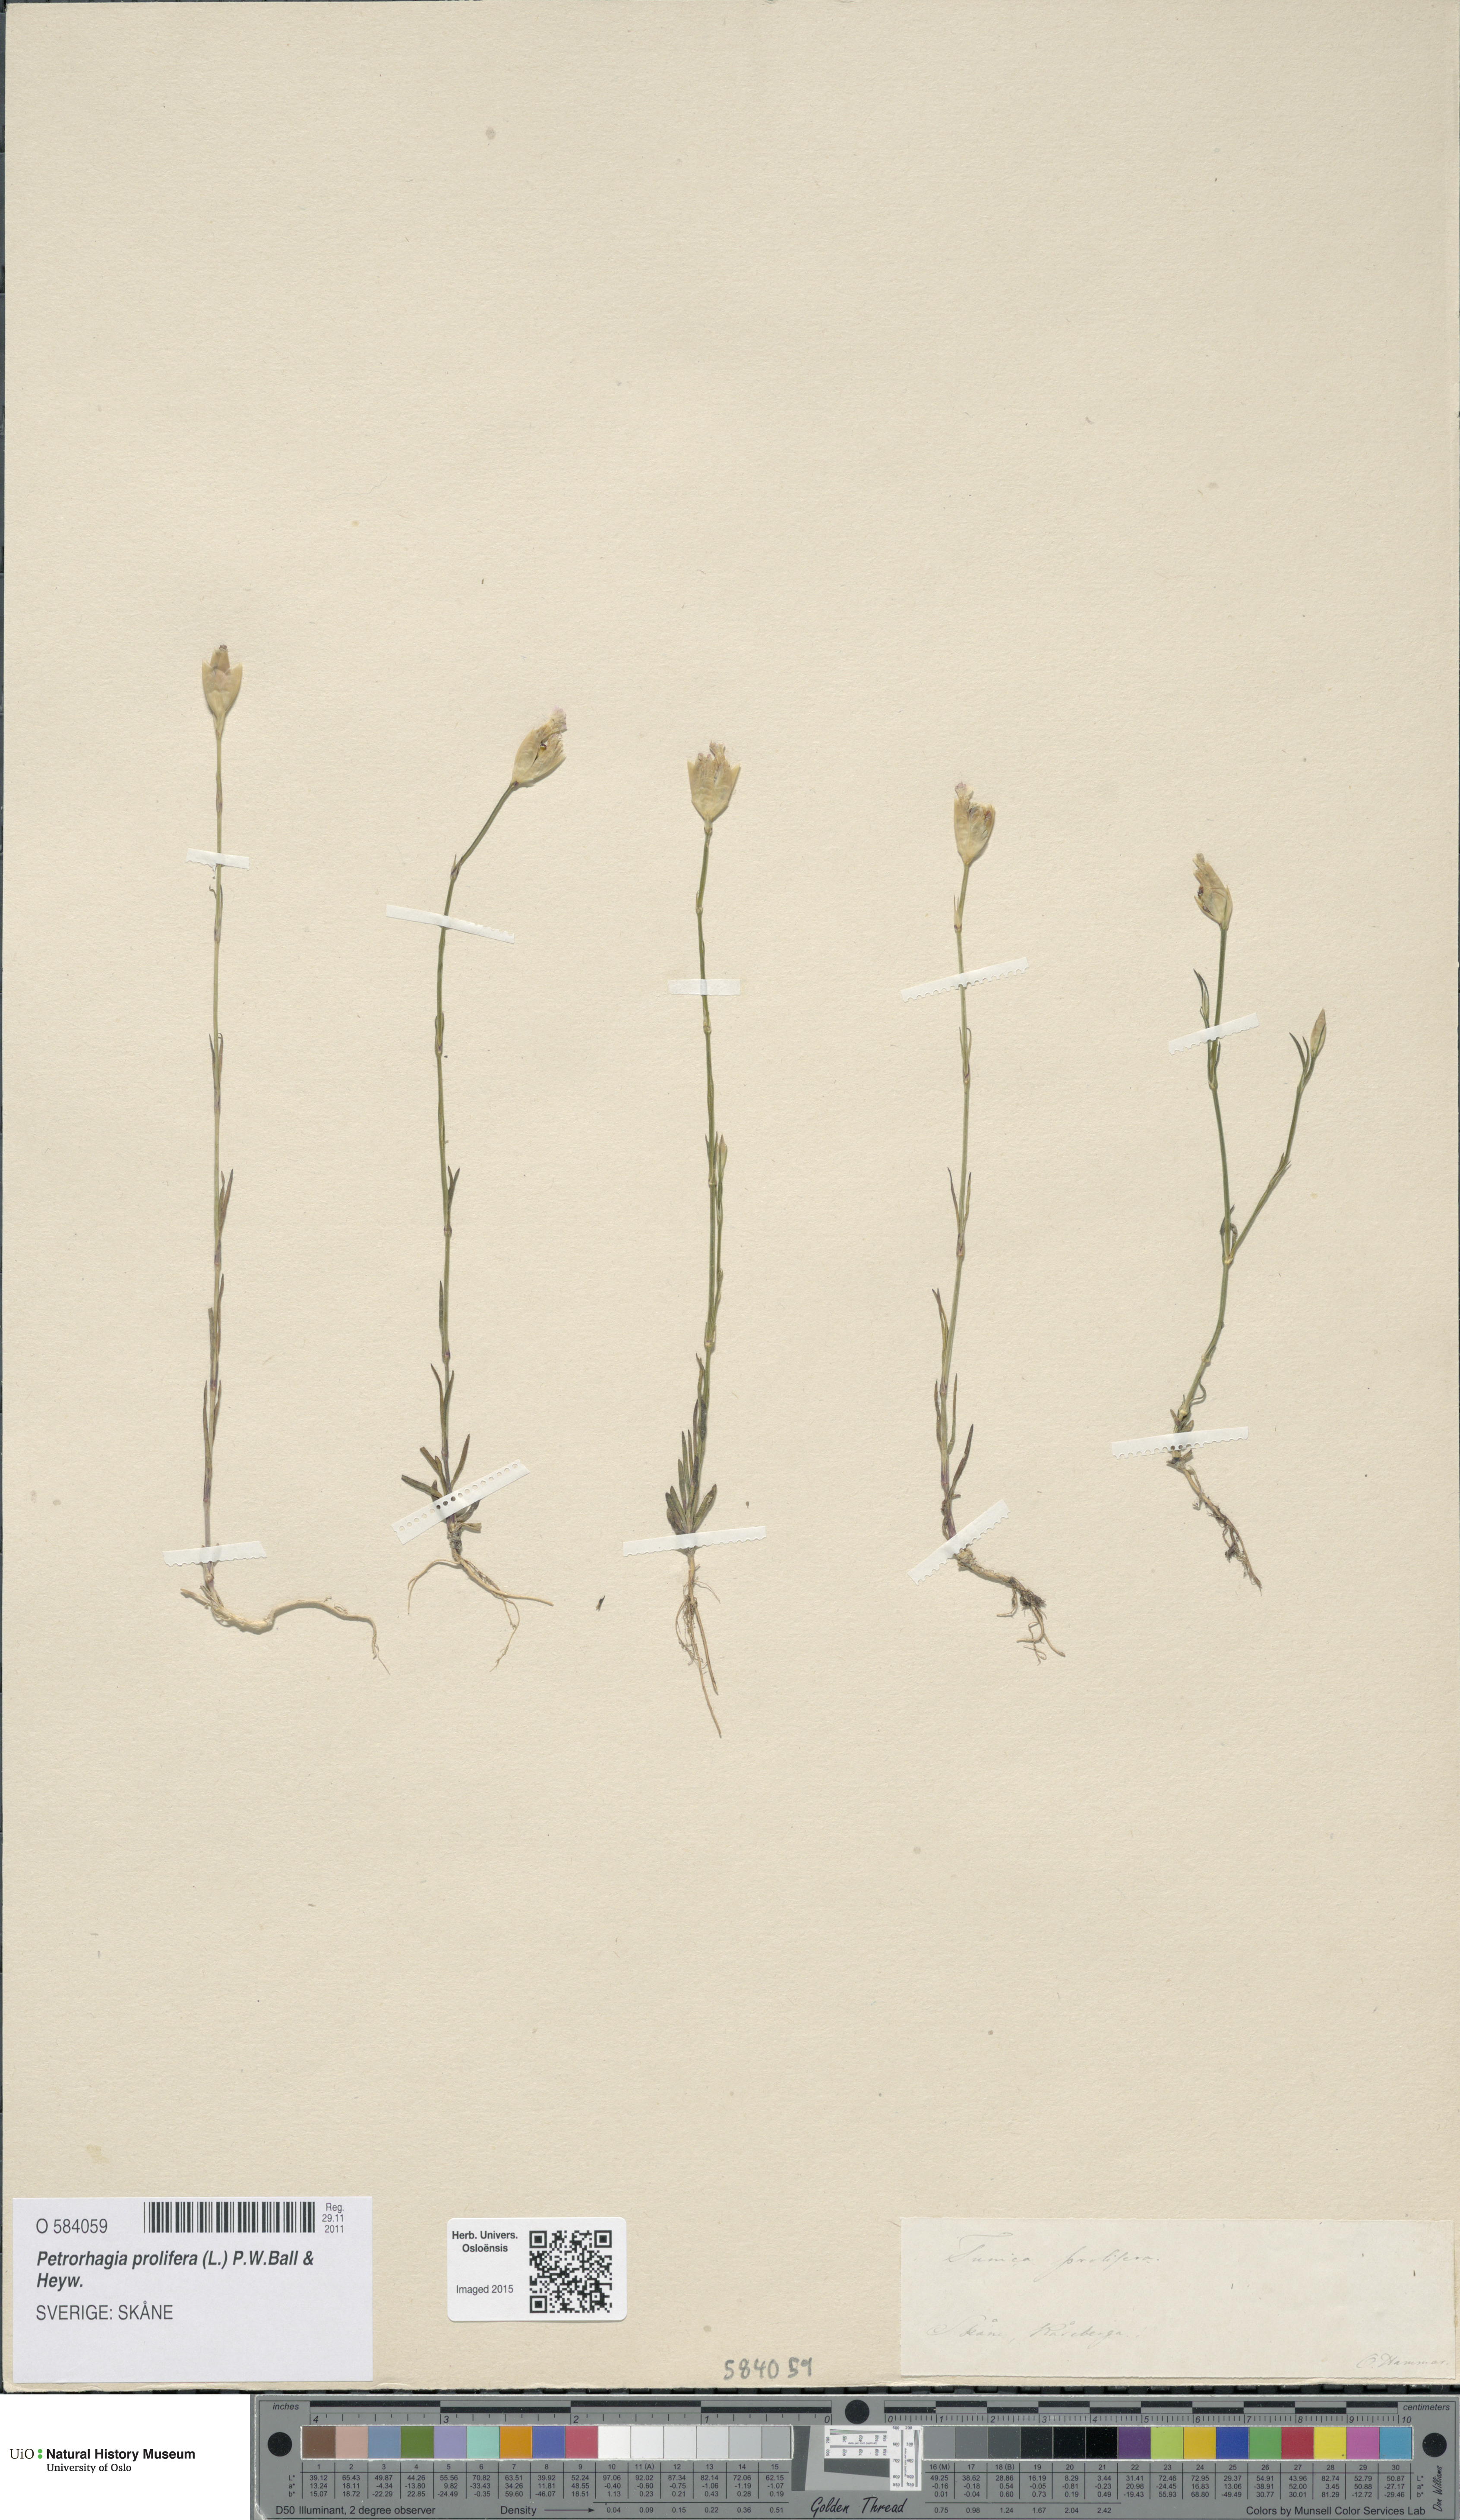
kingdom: Plantae
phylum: Tracheophyta
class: Magnoliopsida
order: Caryophyllales
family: Caryophyllaceae
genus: Petrorhagia
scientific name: Petrorhagia prolifera
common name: Proliferous pink
